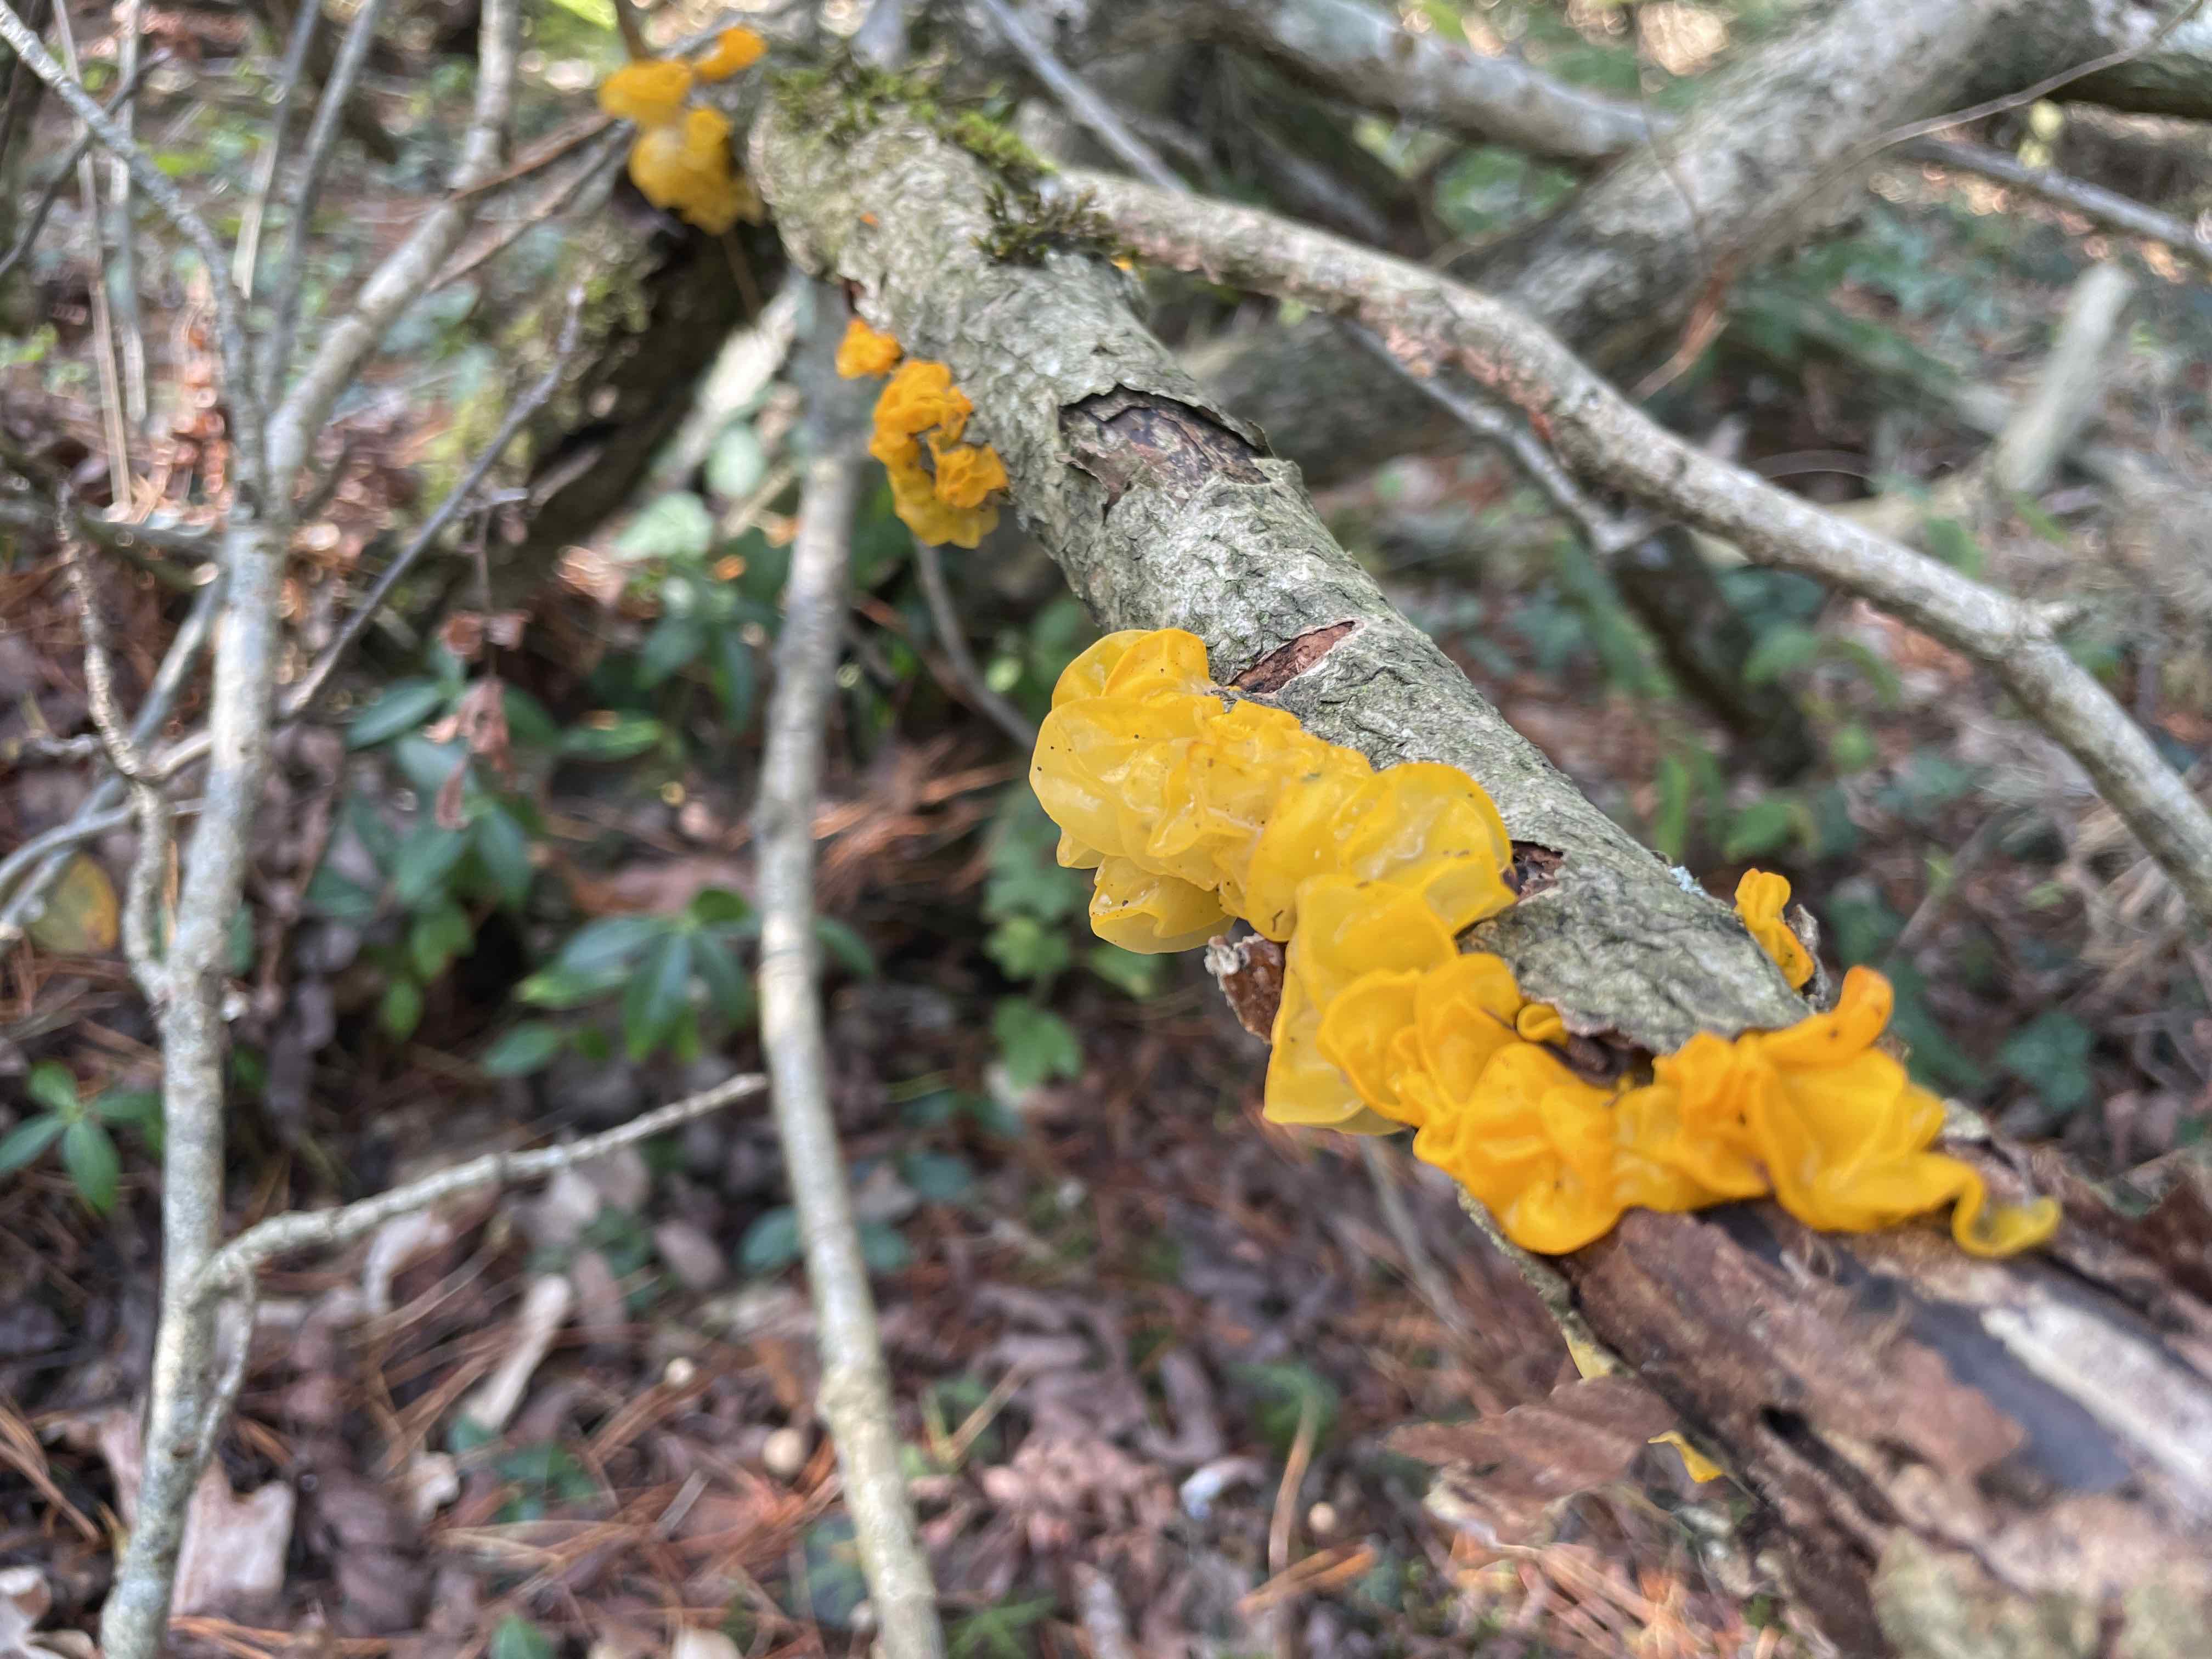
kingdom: Fungi
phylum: Basidiomycota
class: Tremellomycetes
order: Tremellales
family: Tremellaceae
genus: Tremella
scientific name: Tremella mesenterica
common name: gul bævresvamp
